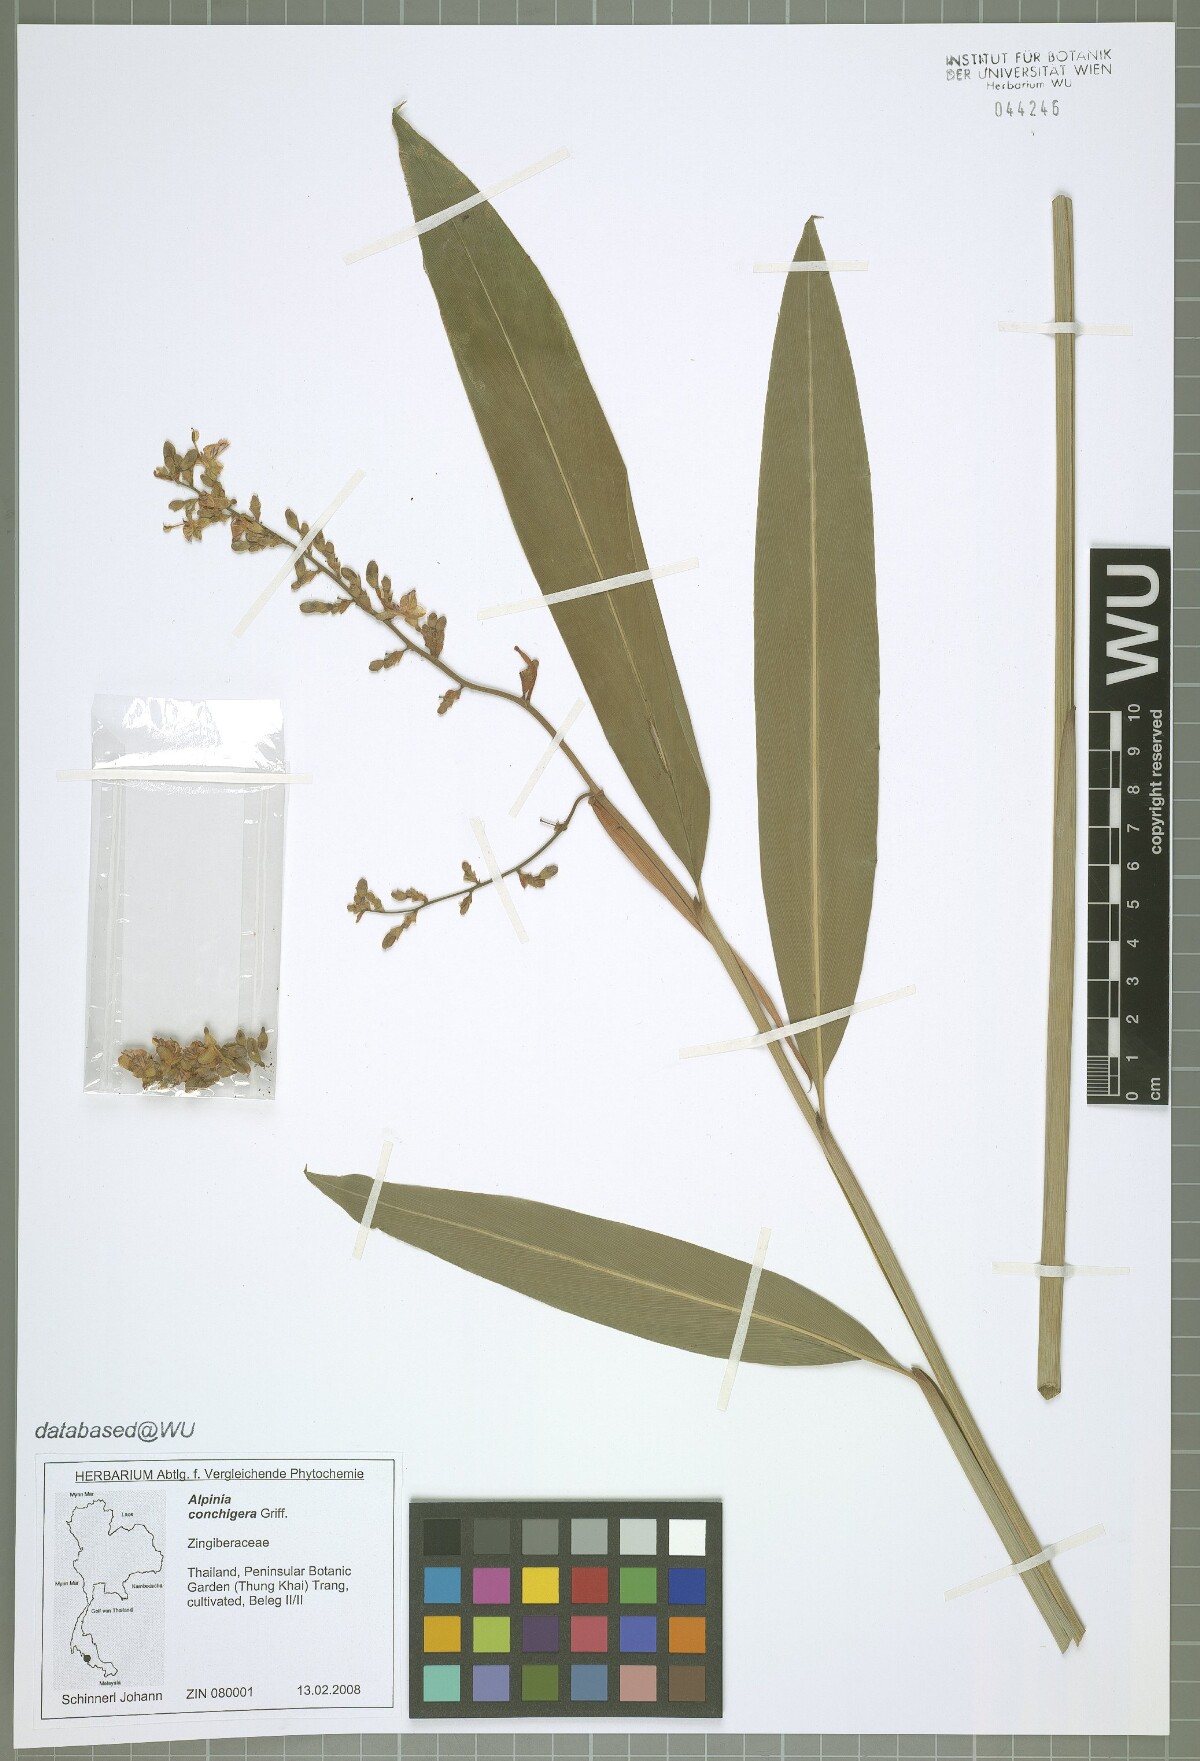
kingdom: Plantae
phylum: Tracheophyta
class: Liliopsida
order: Zingiberales
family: Zingiberaceae
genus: Alpinia
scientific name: Alpinia conchigera
